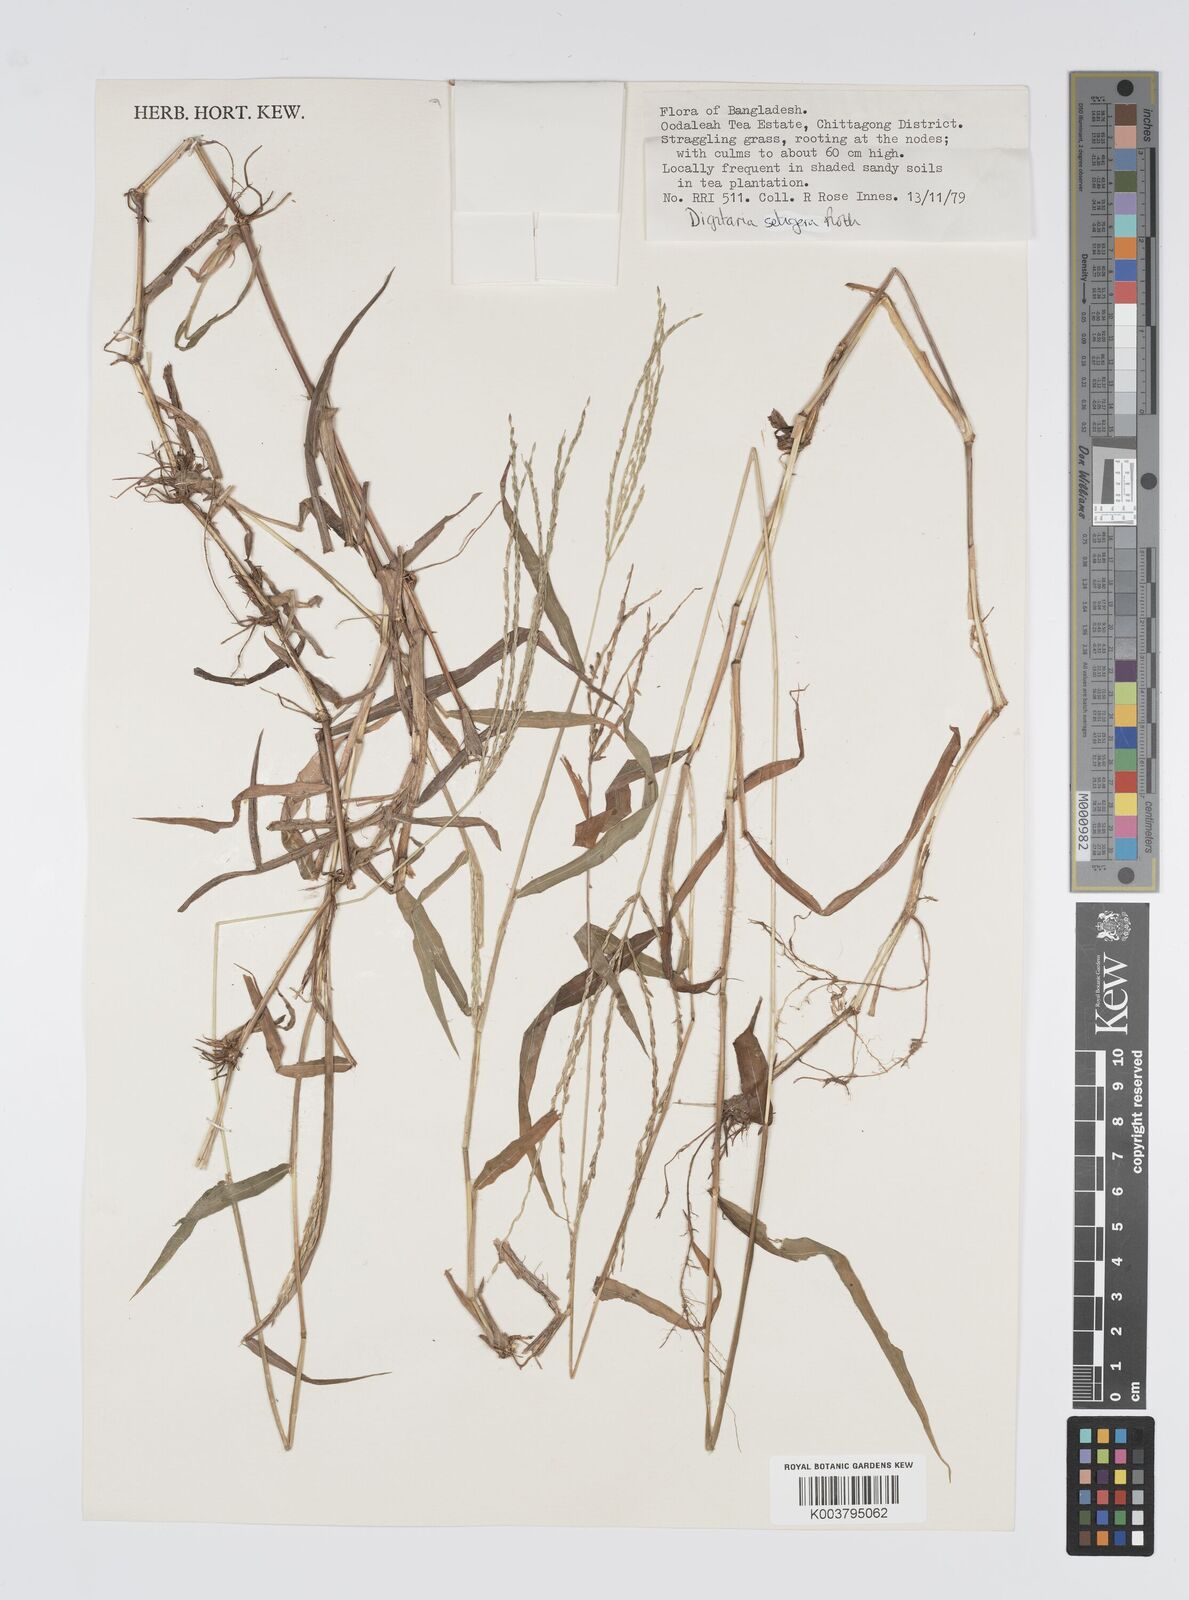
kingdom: Plantae
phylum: Tracheophyta
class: Liliopsida
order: Poales
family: Poaceae
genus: Digitaria
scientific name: Digitaria setigera
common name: East indian crabgrass
